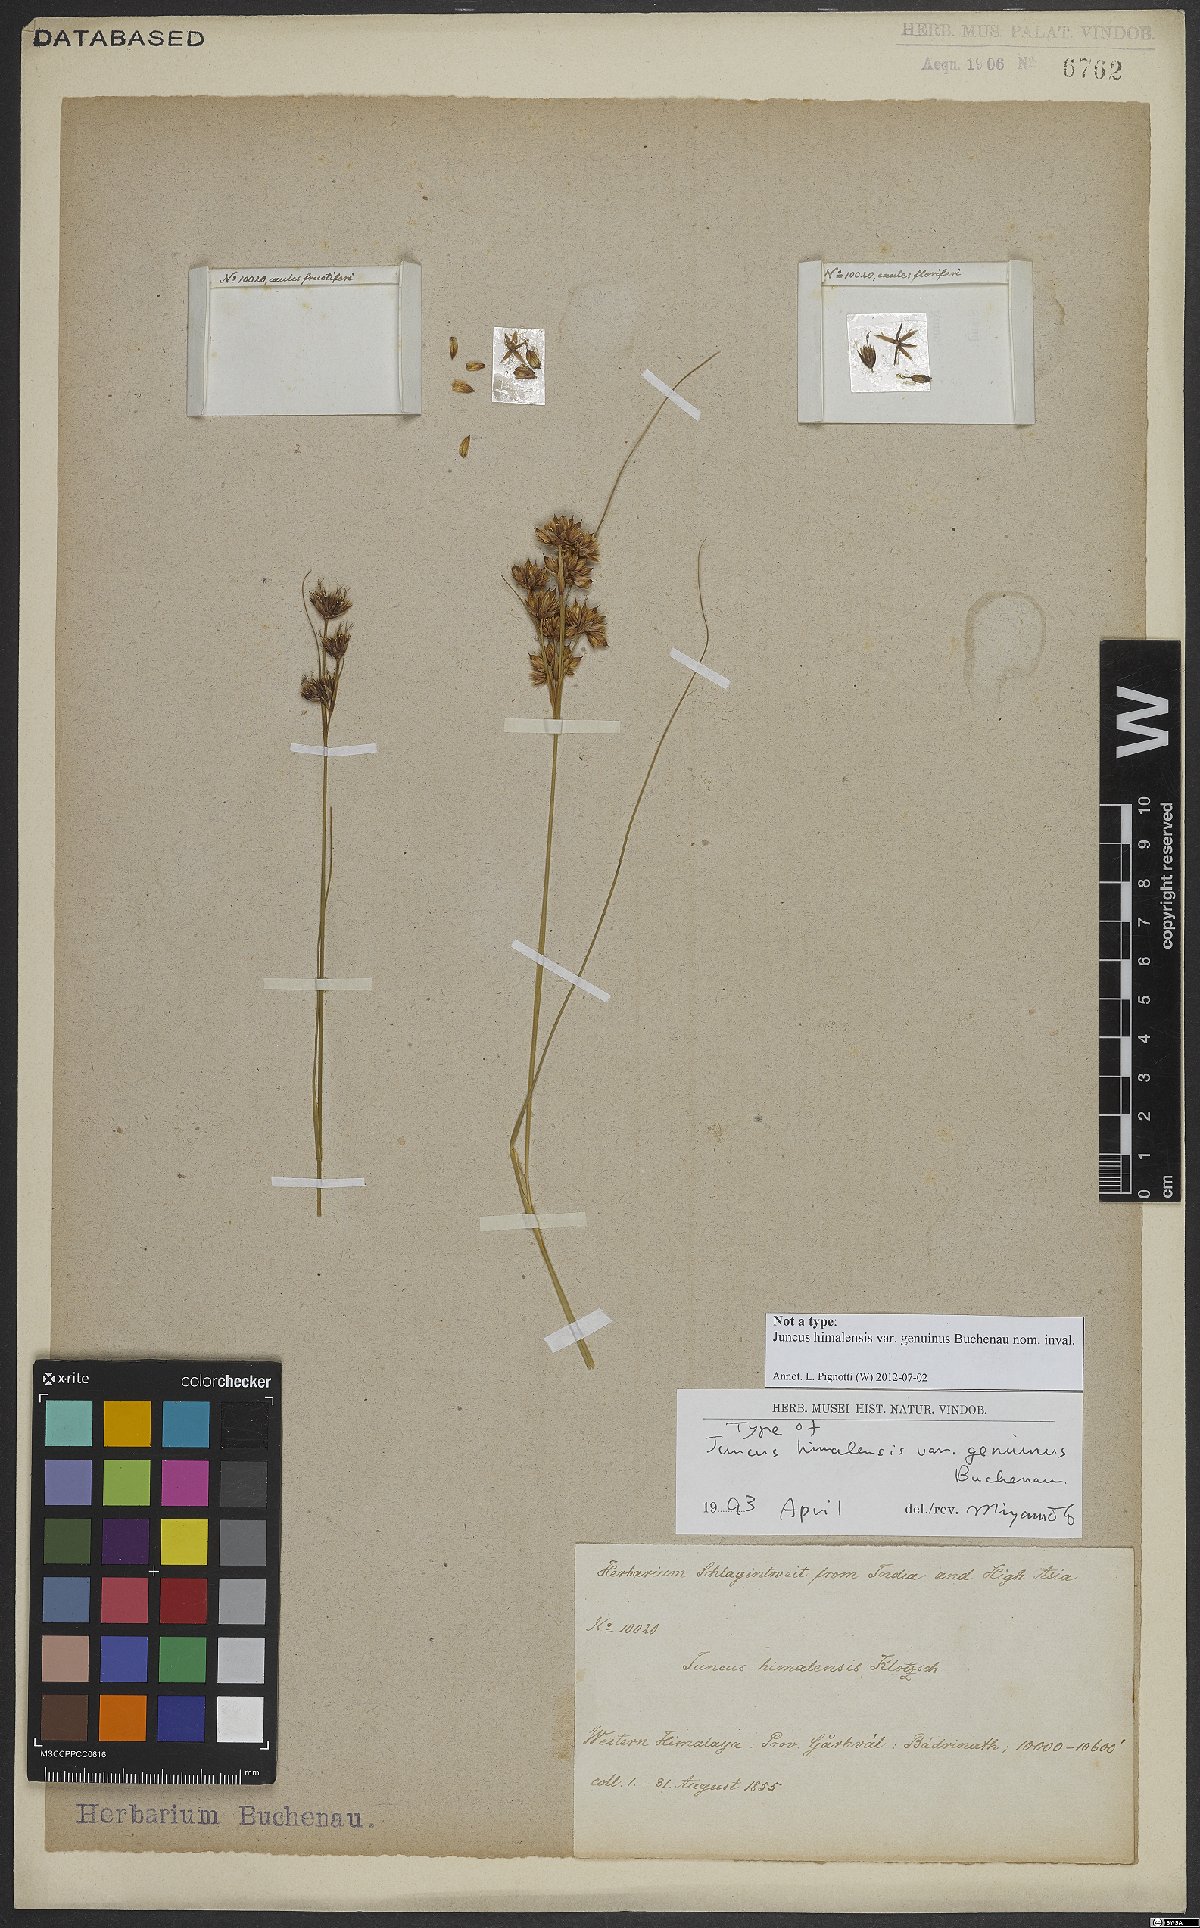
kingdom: Plantae
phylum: Tracheophyta
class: Liliopsida
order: Poales
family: Juncaceae
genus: Juncus
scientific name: Juncus himalensis
